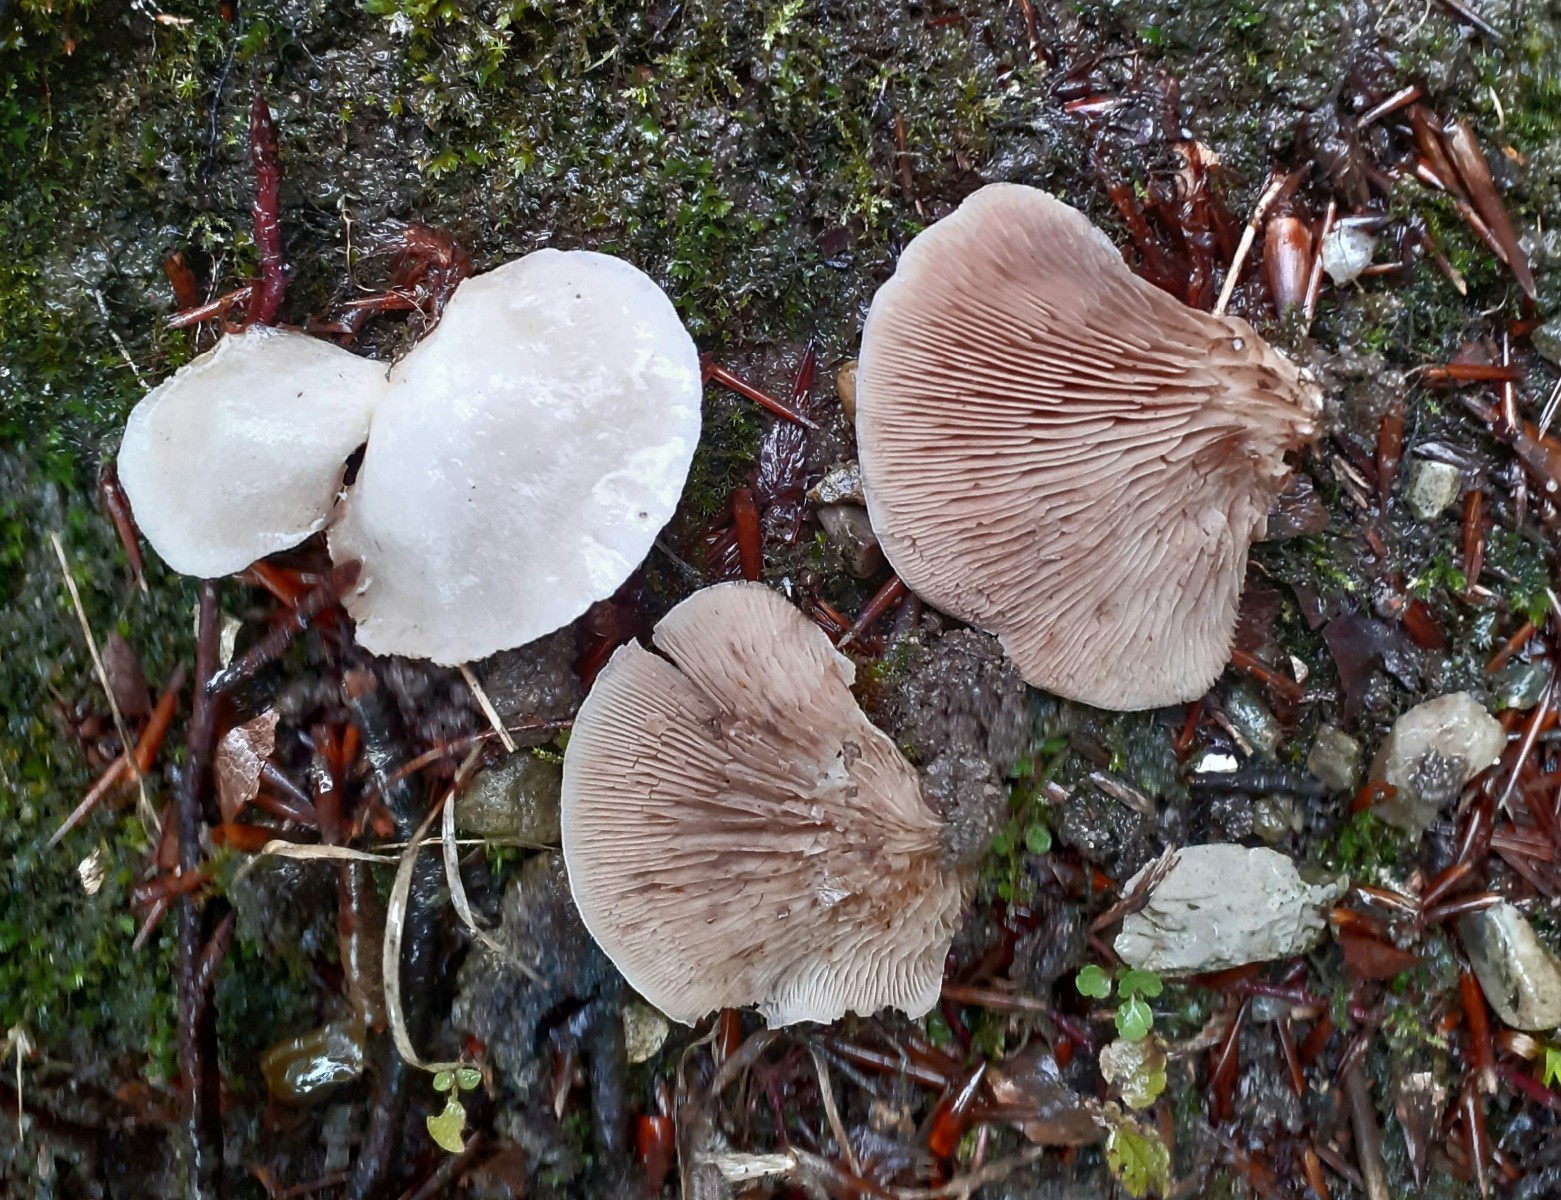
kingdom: Fungi
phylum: Basidiomycota
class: Agaricomycetes
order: Agaricales
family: Crepidotaceae
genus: Crepidotus
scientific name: Crepidotus autochthonus
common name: skæv muslingesvamp
